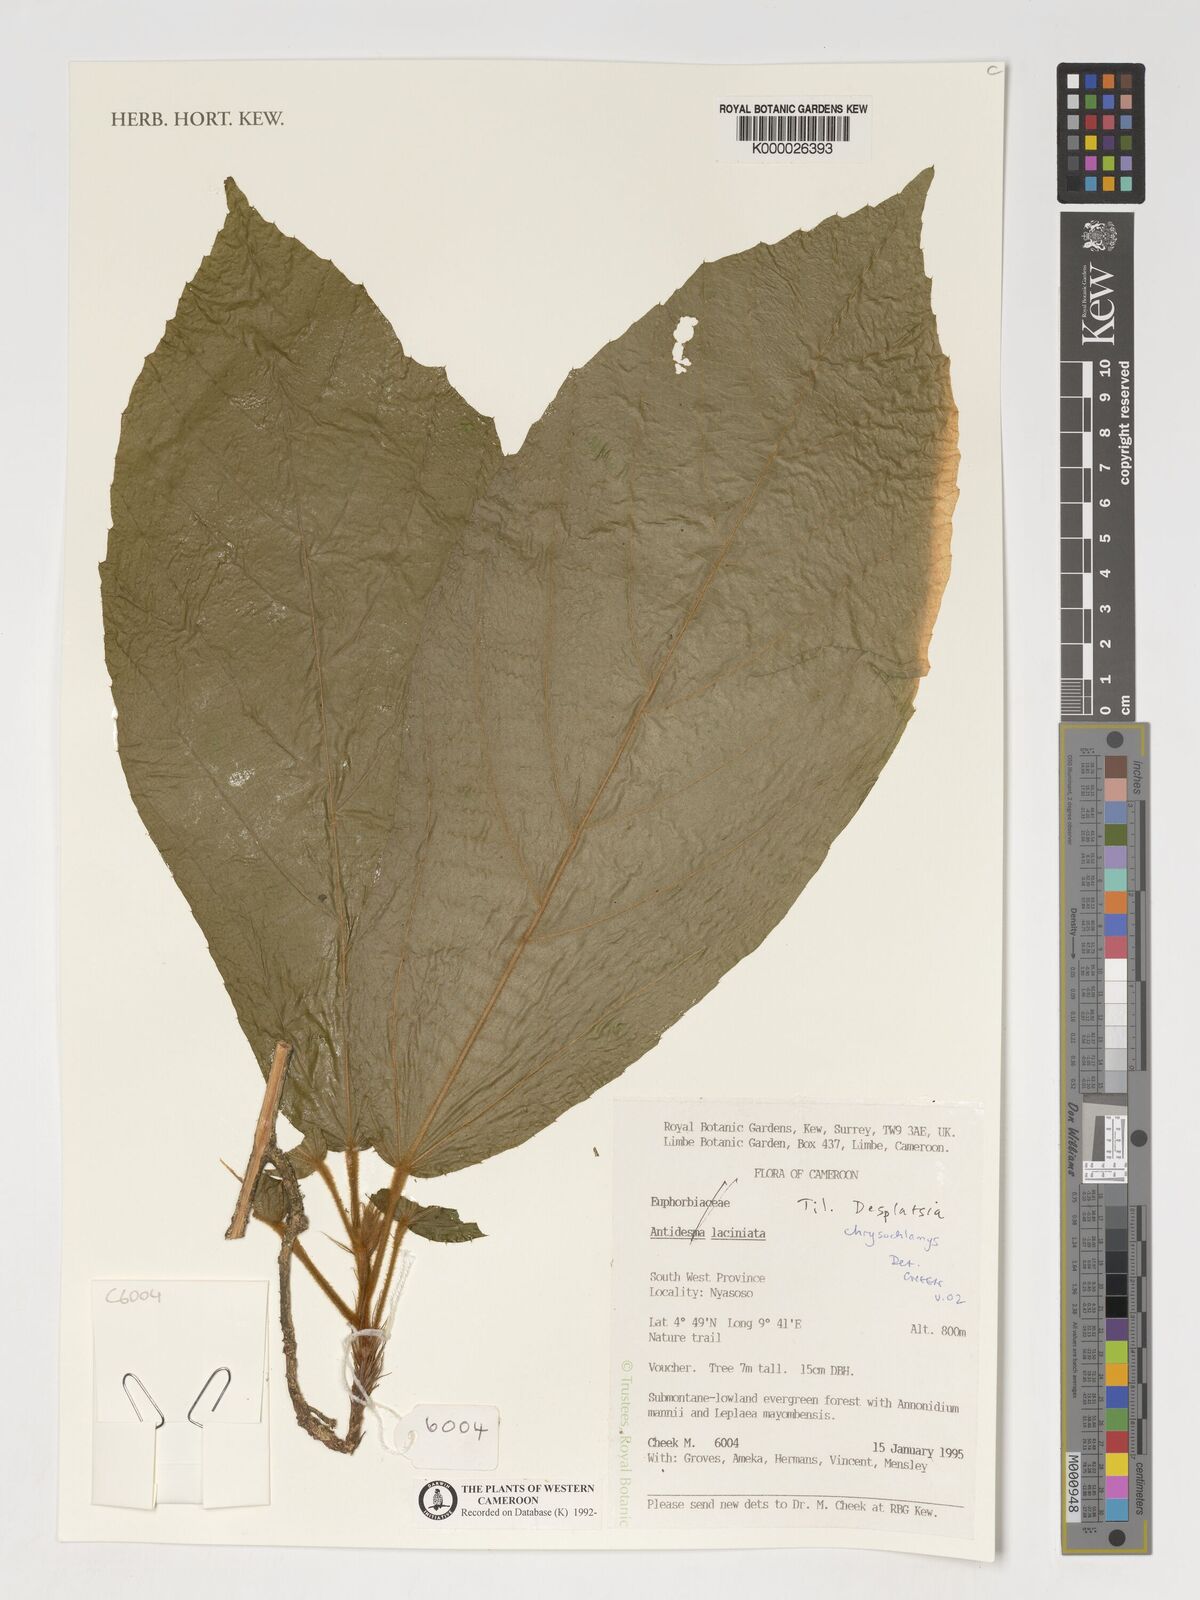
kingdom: Plantae
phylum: Tracheophyta
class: Magnoliopsida
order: Malvales
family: Malvaceae
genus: Desplatsia
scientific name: Desplatsia chrysochlamys
